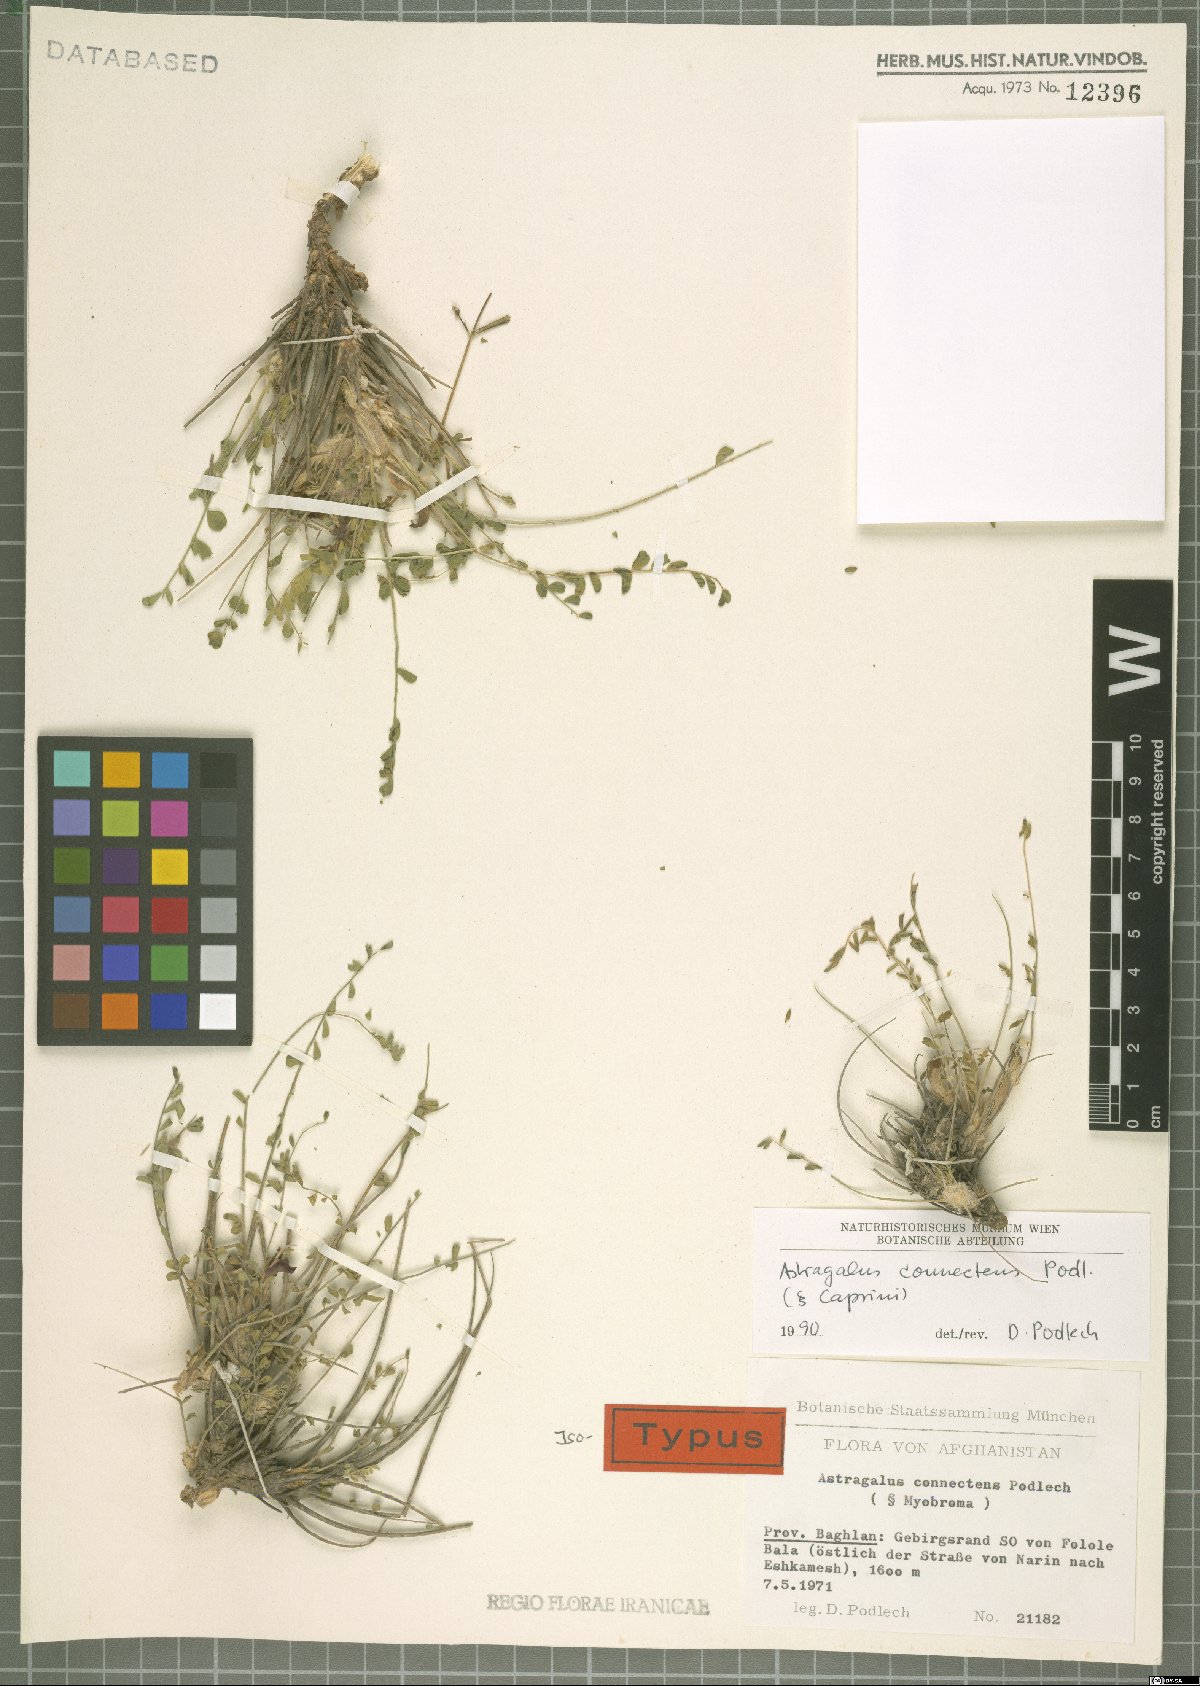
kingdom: Plantae
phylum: Tracheophyta
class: Magnoliopsida
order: Fabales
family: Fabaceae
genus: Astragalus
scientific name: Astragalus connectens
